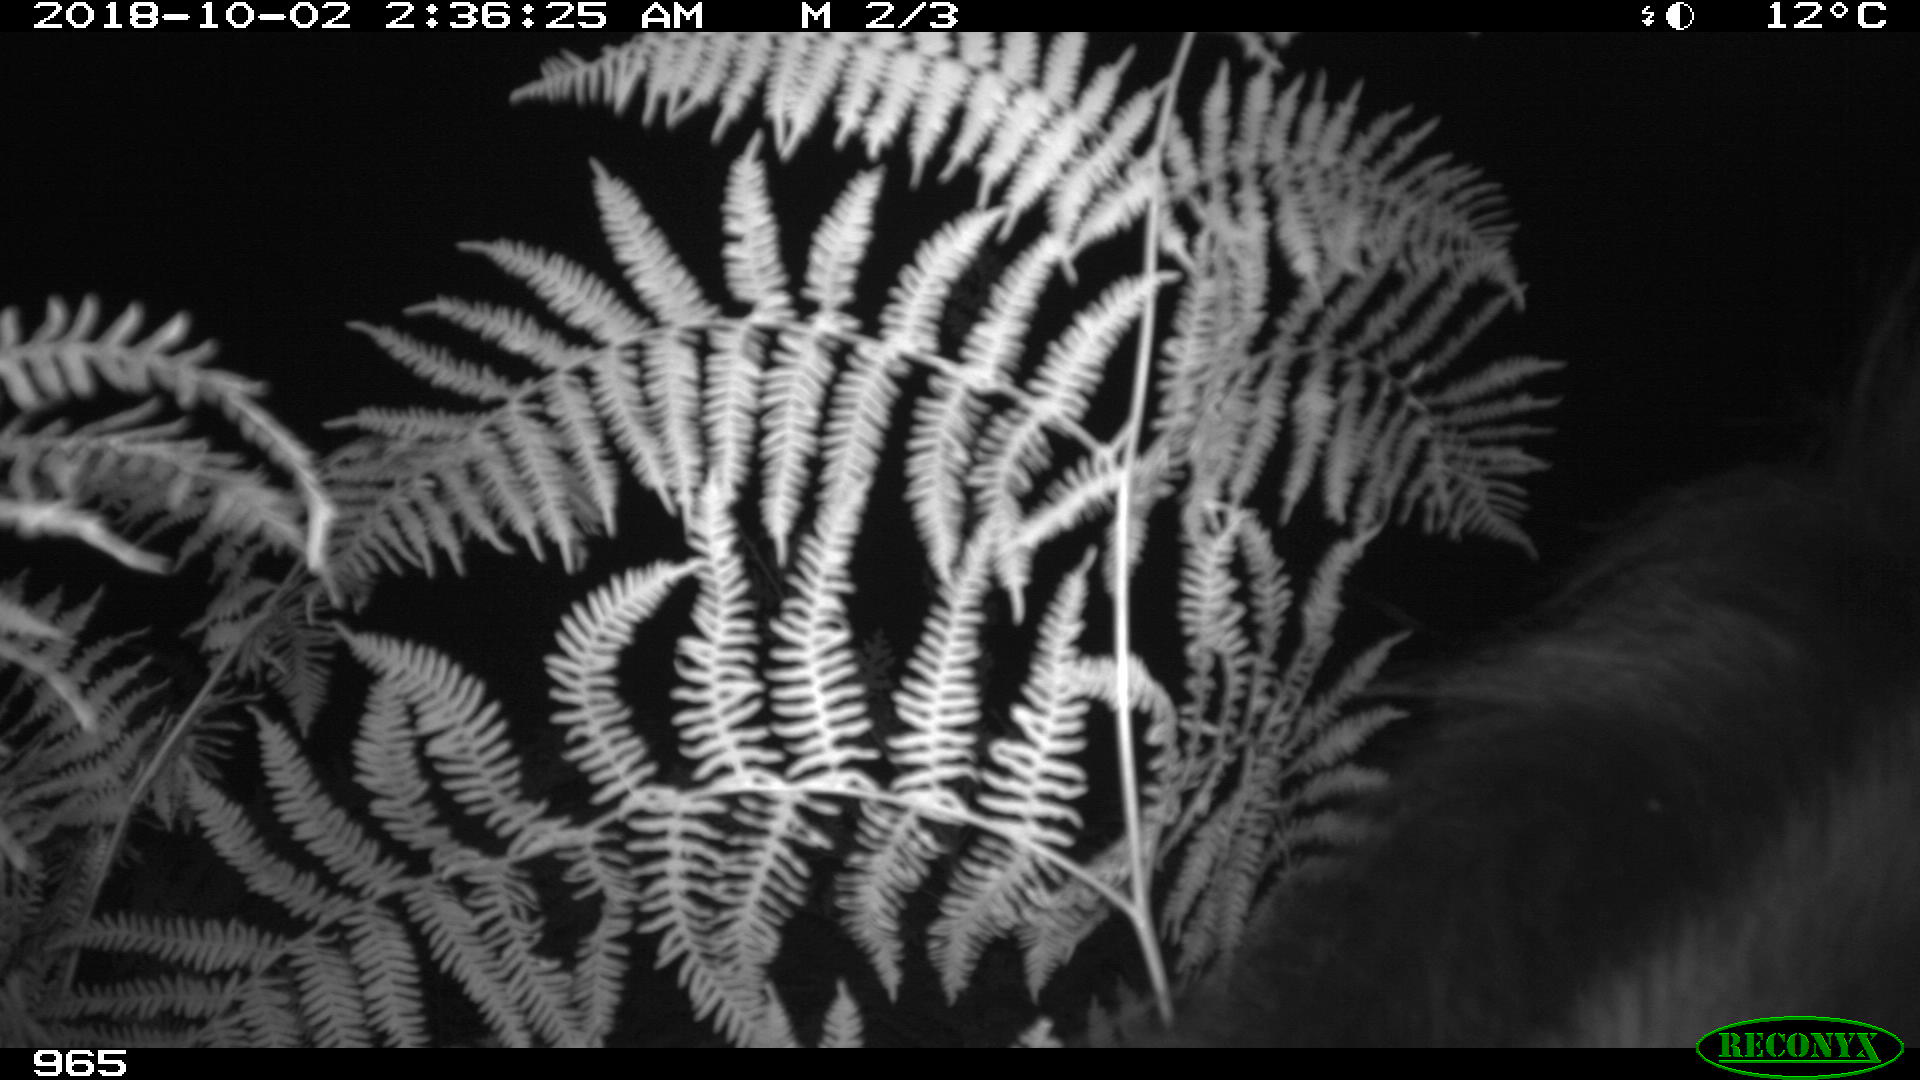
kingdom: Animalia
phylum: Chordata
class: Mammalia
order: Perissodactyla
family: Equidae
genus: Equus
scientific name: Equus caballus
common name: Horse
